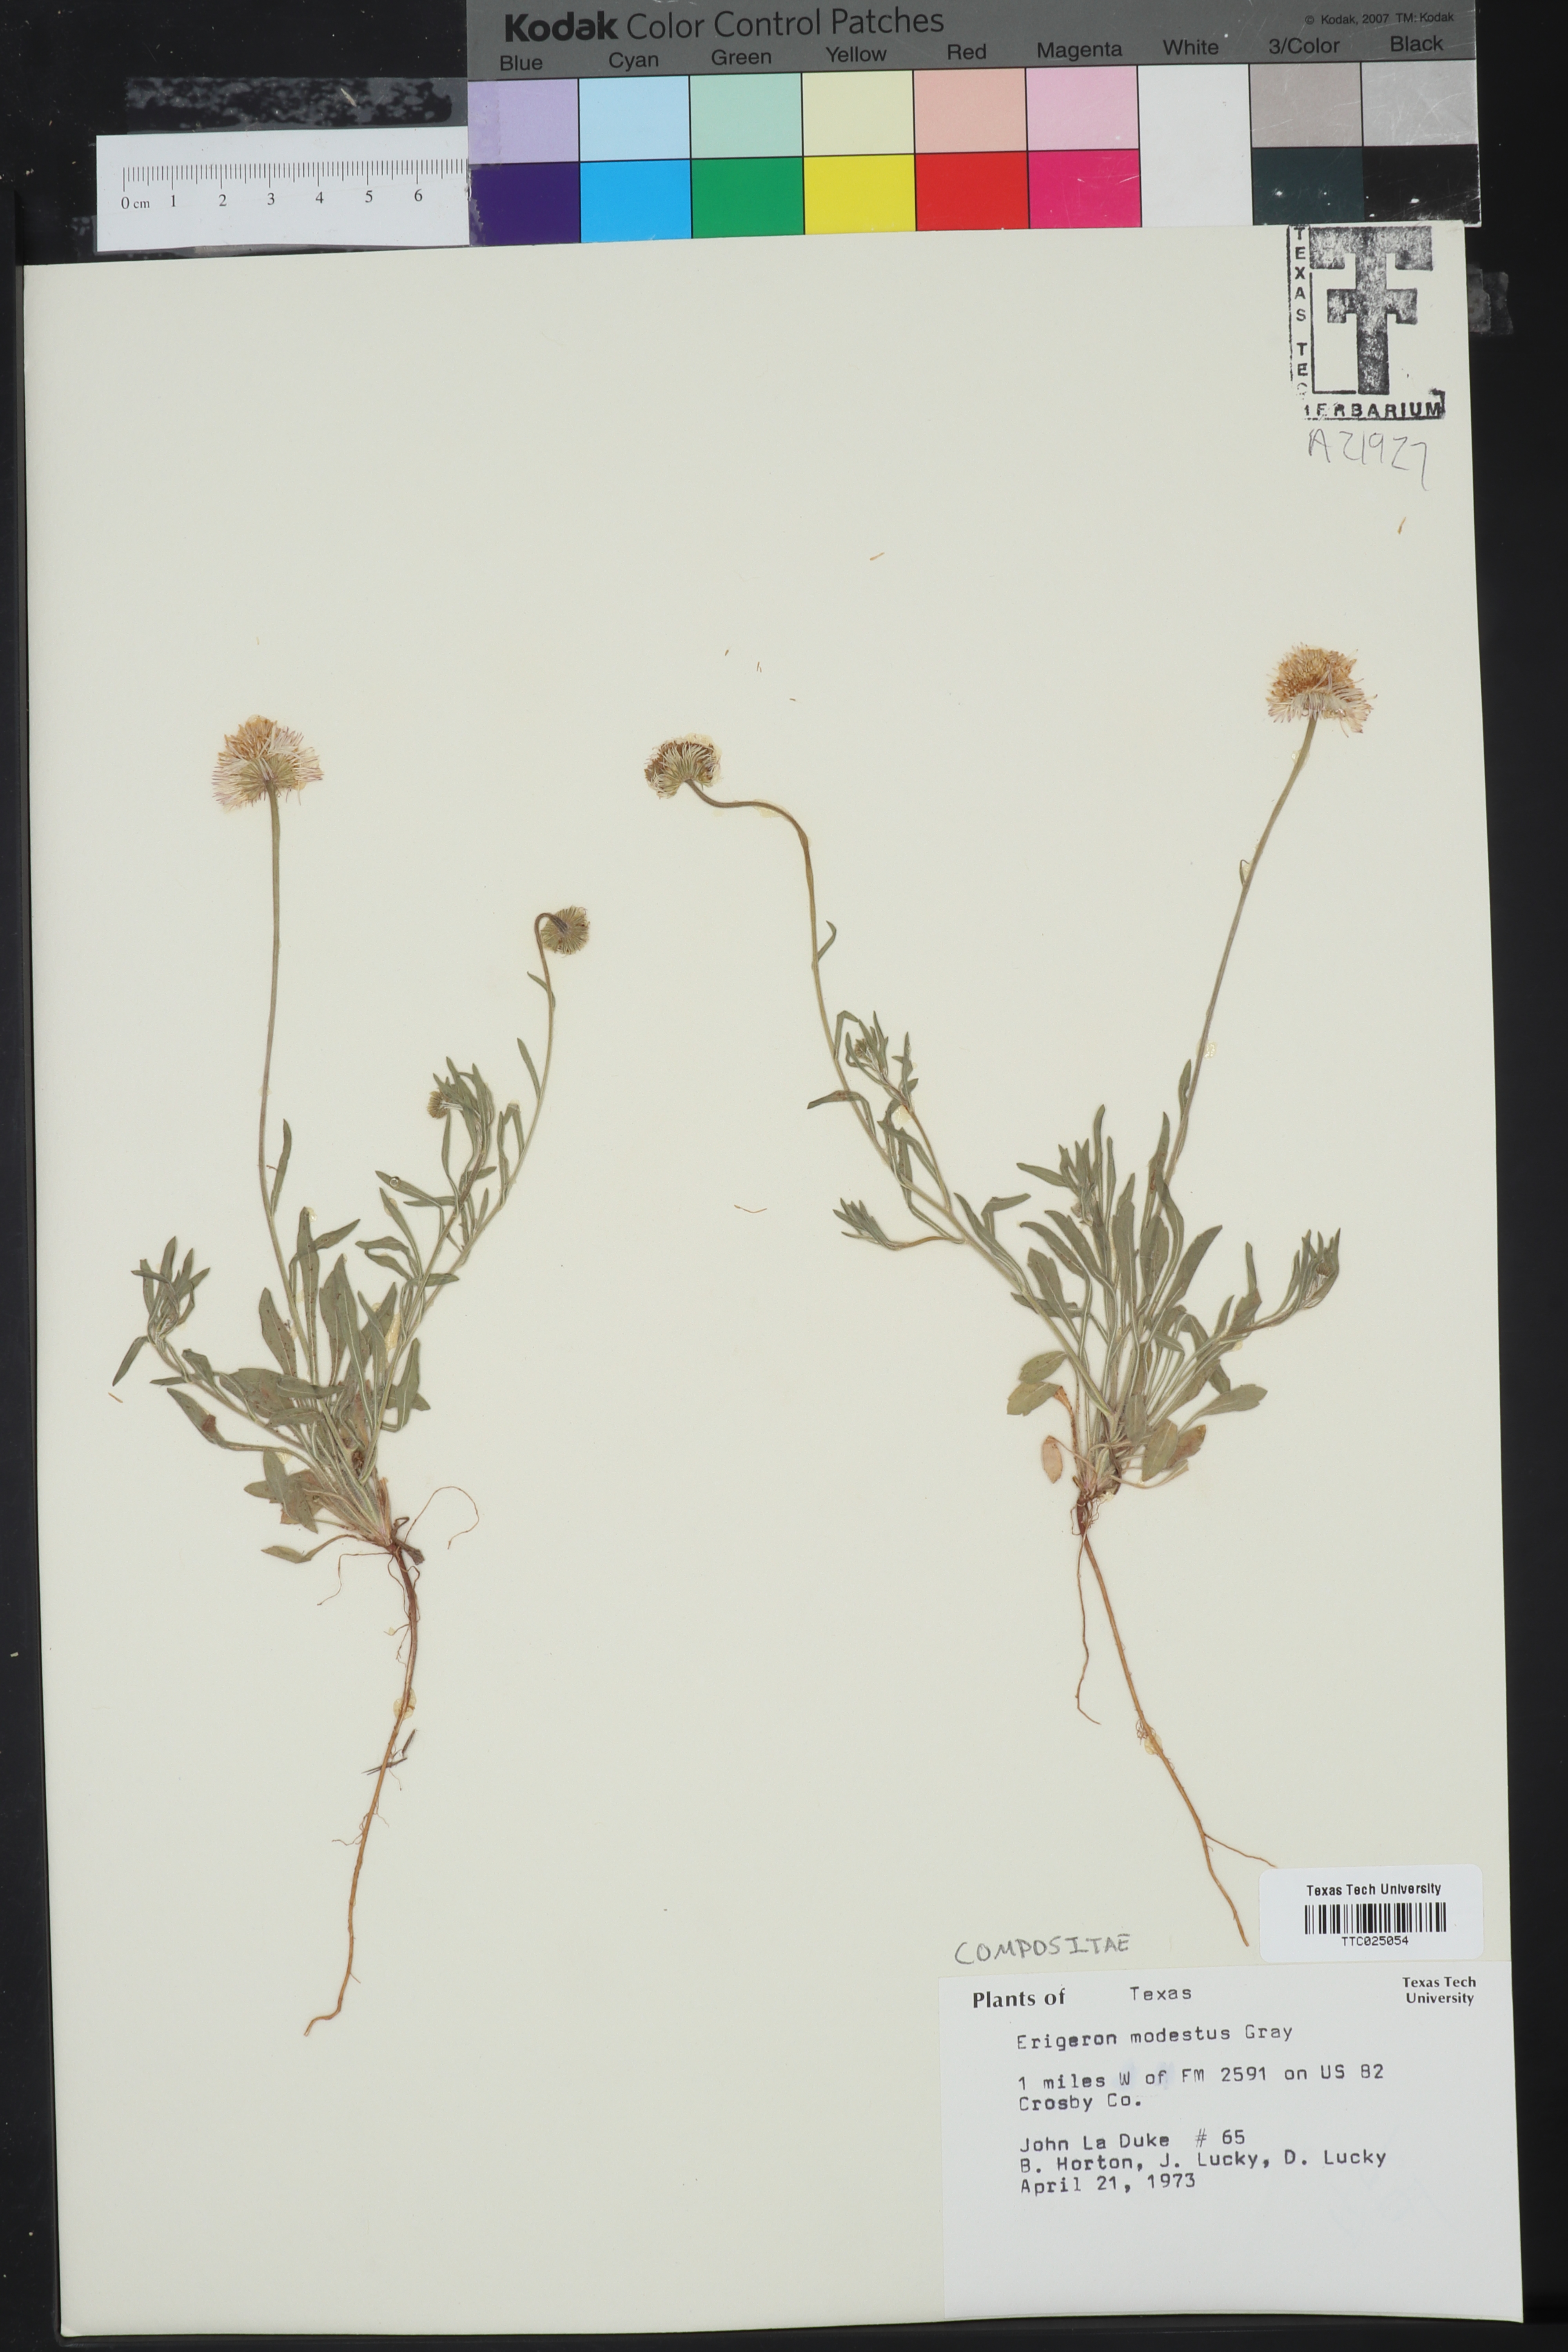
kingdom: Plantae
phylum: Tracheophyta
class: Magnoliopsida
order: Asterales
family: Asteraceae
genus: Erigeron
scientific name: Erigeron modestus
